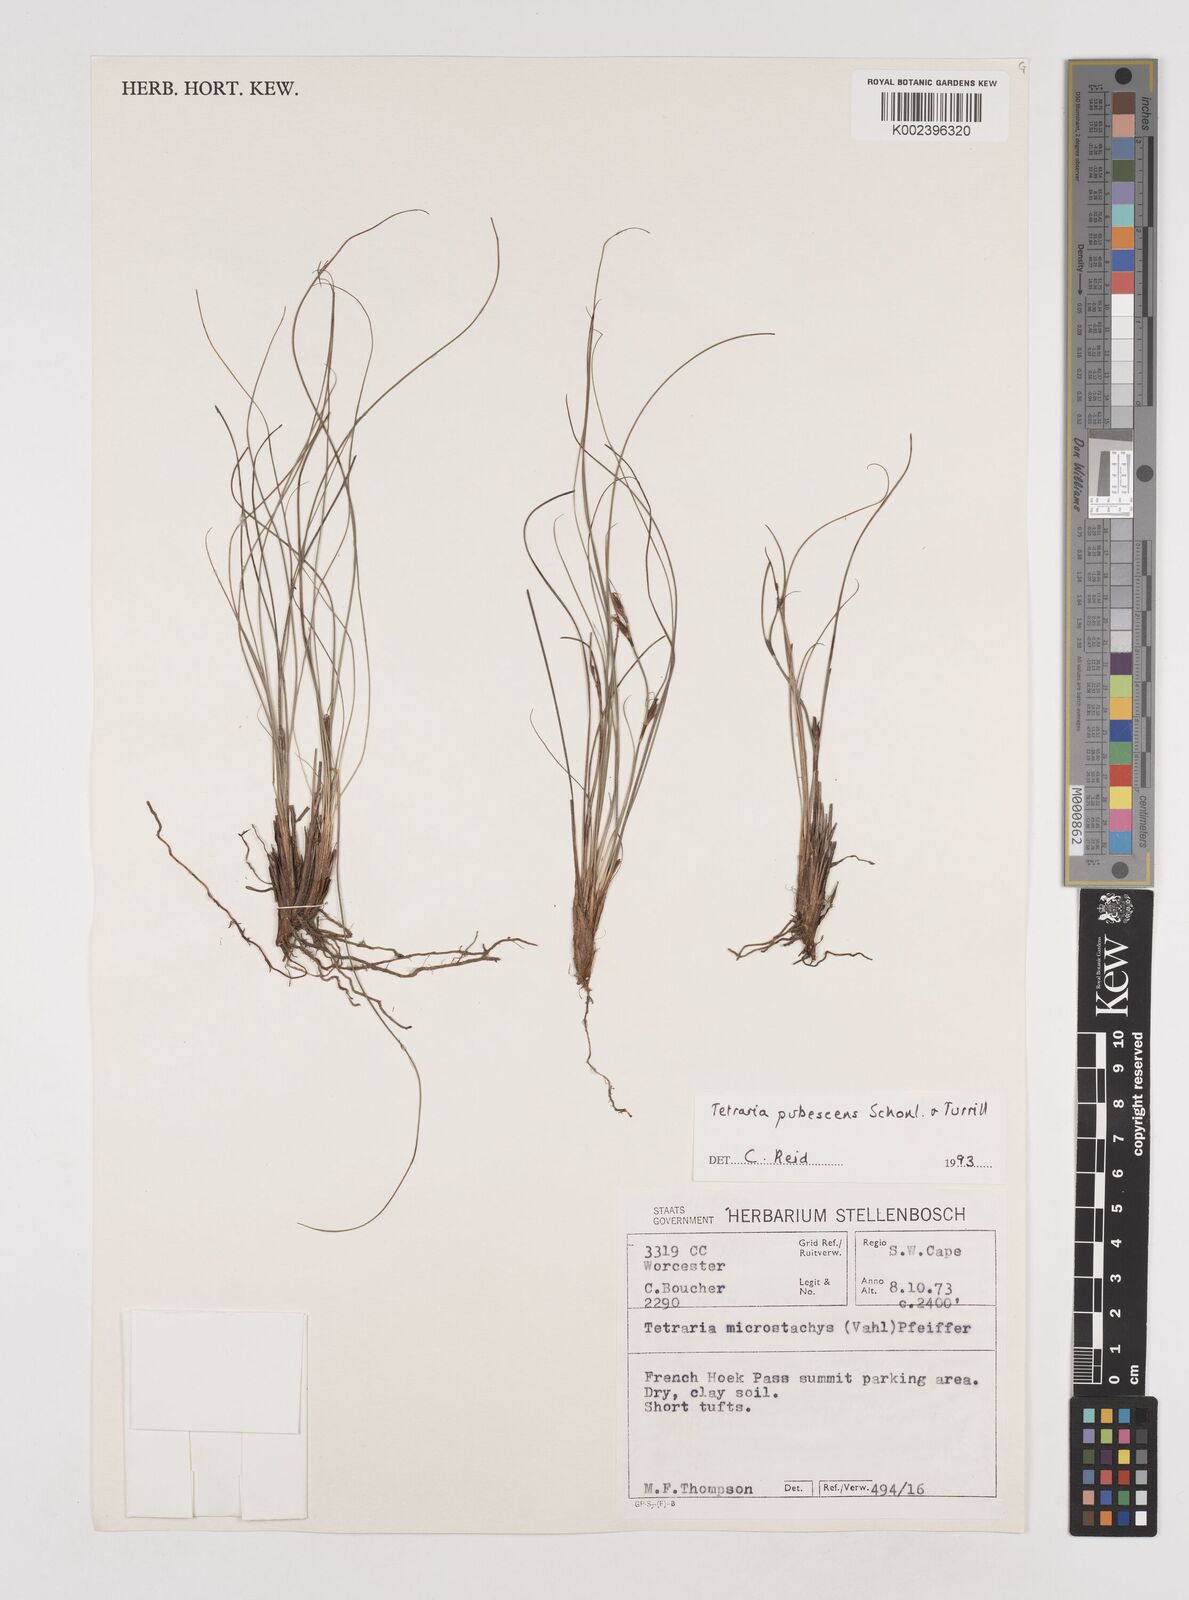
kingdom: Plantae
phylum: Tracheophyta
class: Liliopsida
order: Poales
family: Cyperaceae
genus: Tetraria
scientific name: Tetraria pubescens
